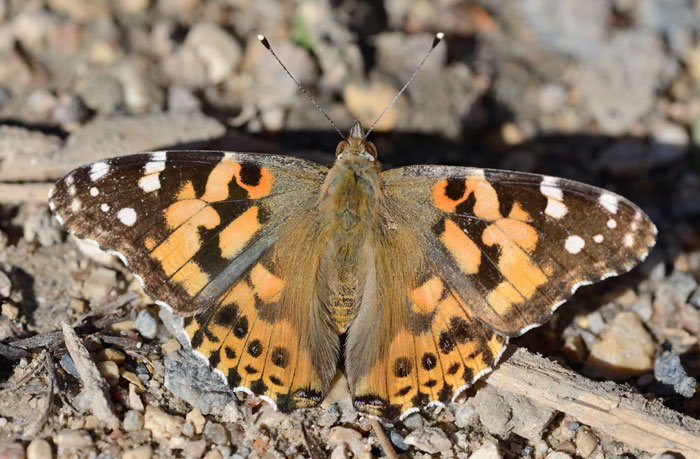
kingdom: Animalia
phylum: Arthropoda
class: Insecta
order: Lepidoptera
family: Nymphalidae
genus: Vanessa
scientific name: Vanessa cardui
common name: Painted Lady
